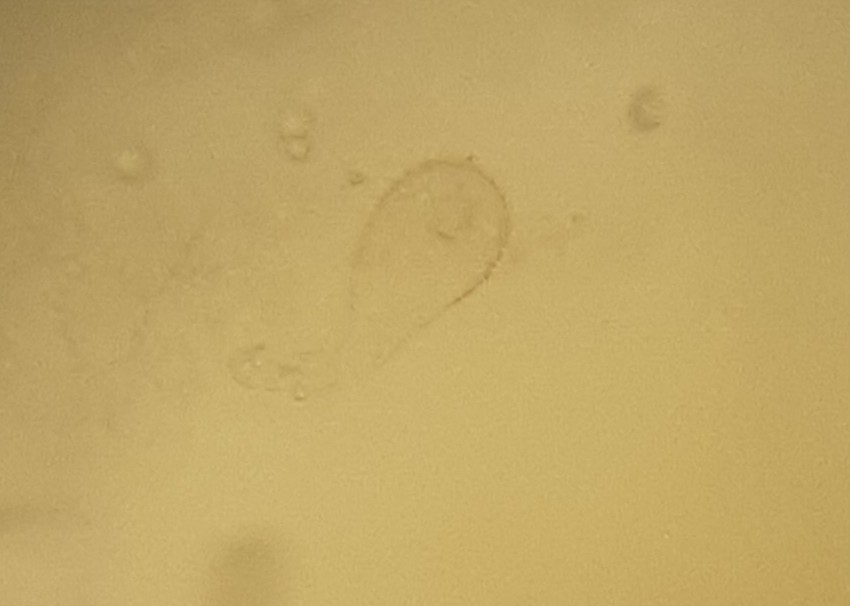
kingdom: Fungi
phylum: Basidiomycota
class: Agaricomycetes
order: Agaricales
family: Mycenaceae
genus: Mycena
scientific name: Mycena
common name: huesvamp
